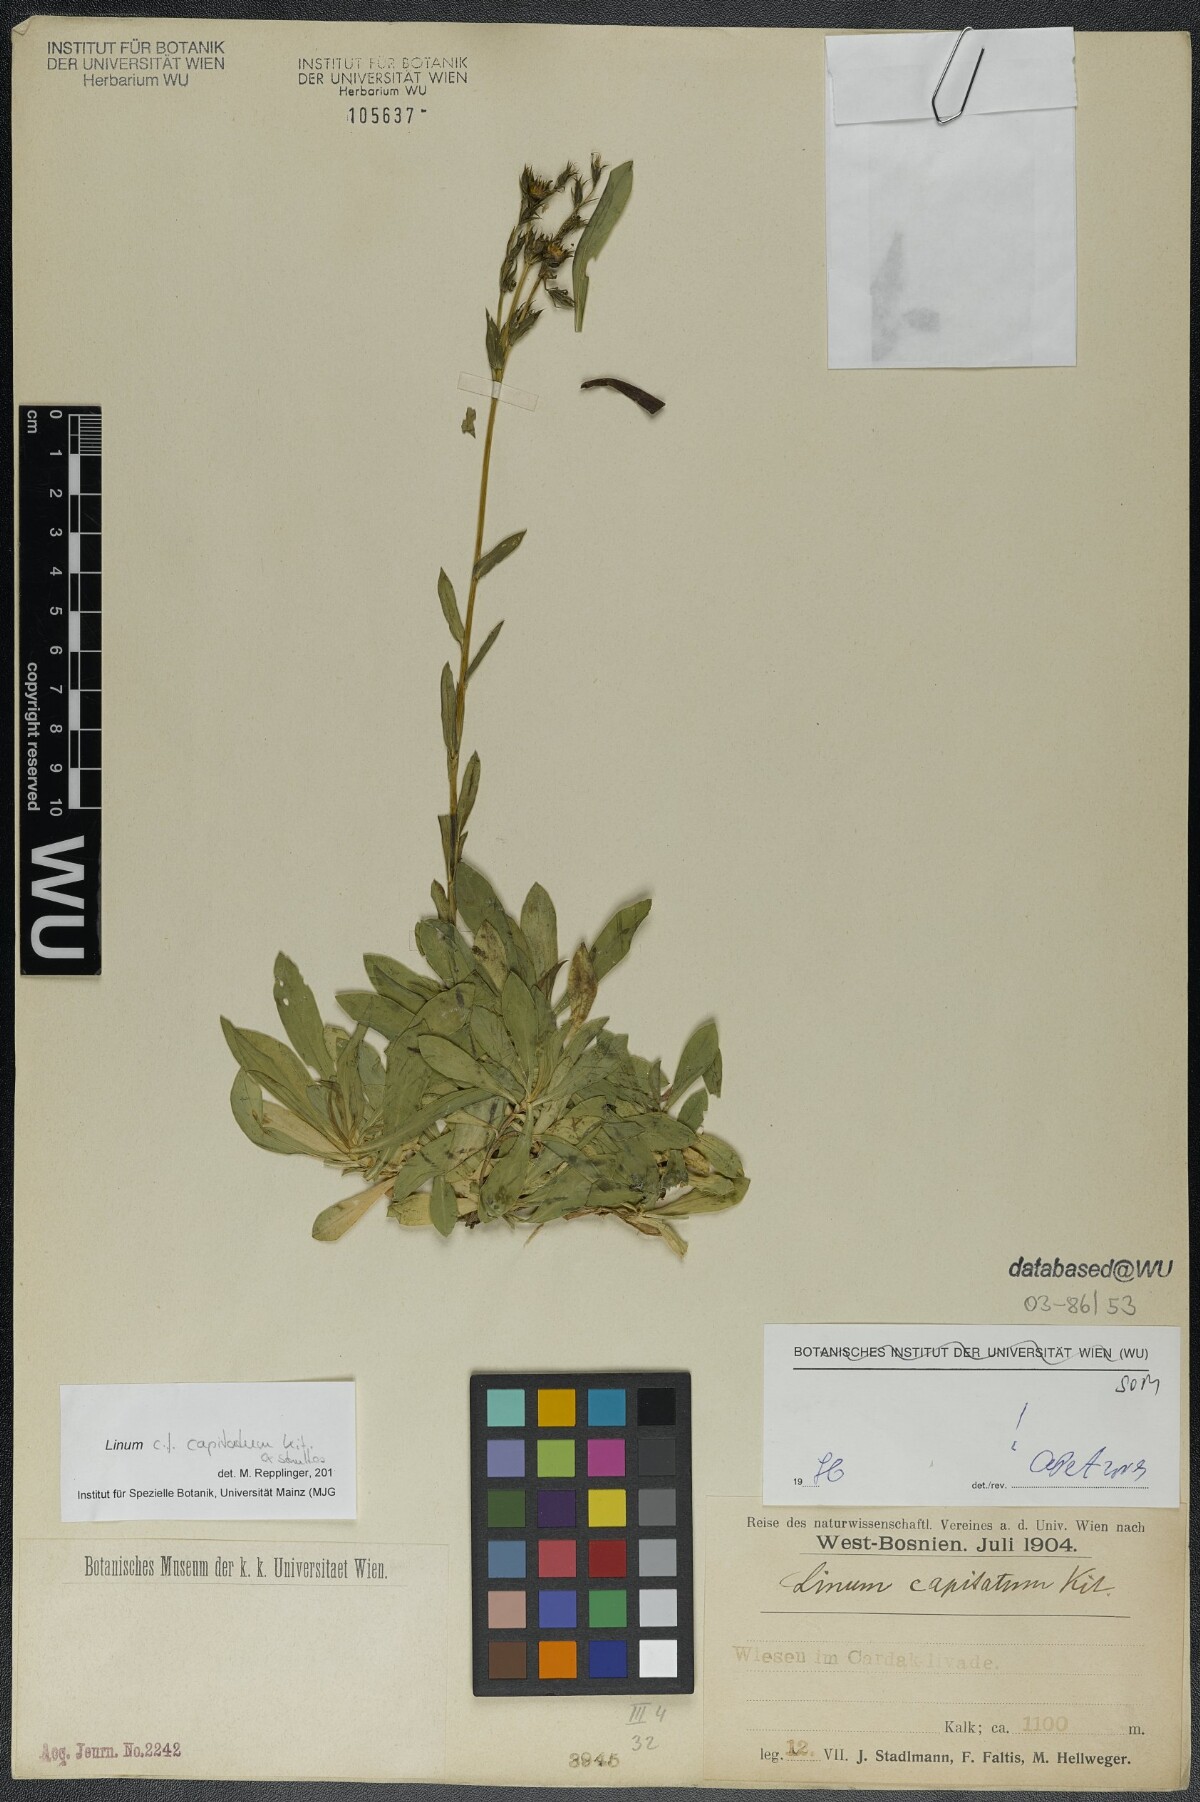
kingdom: Plantae
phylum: Tracheophyta
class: Magnoliopsida
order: Malpighiales
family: Linaceae
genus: Linum
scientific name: Linum capitatum
